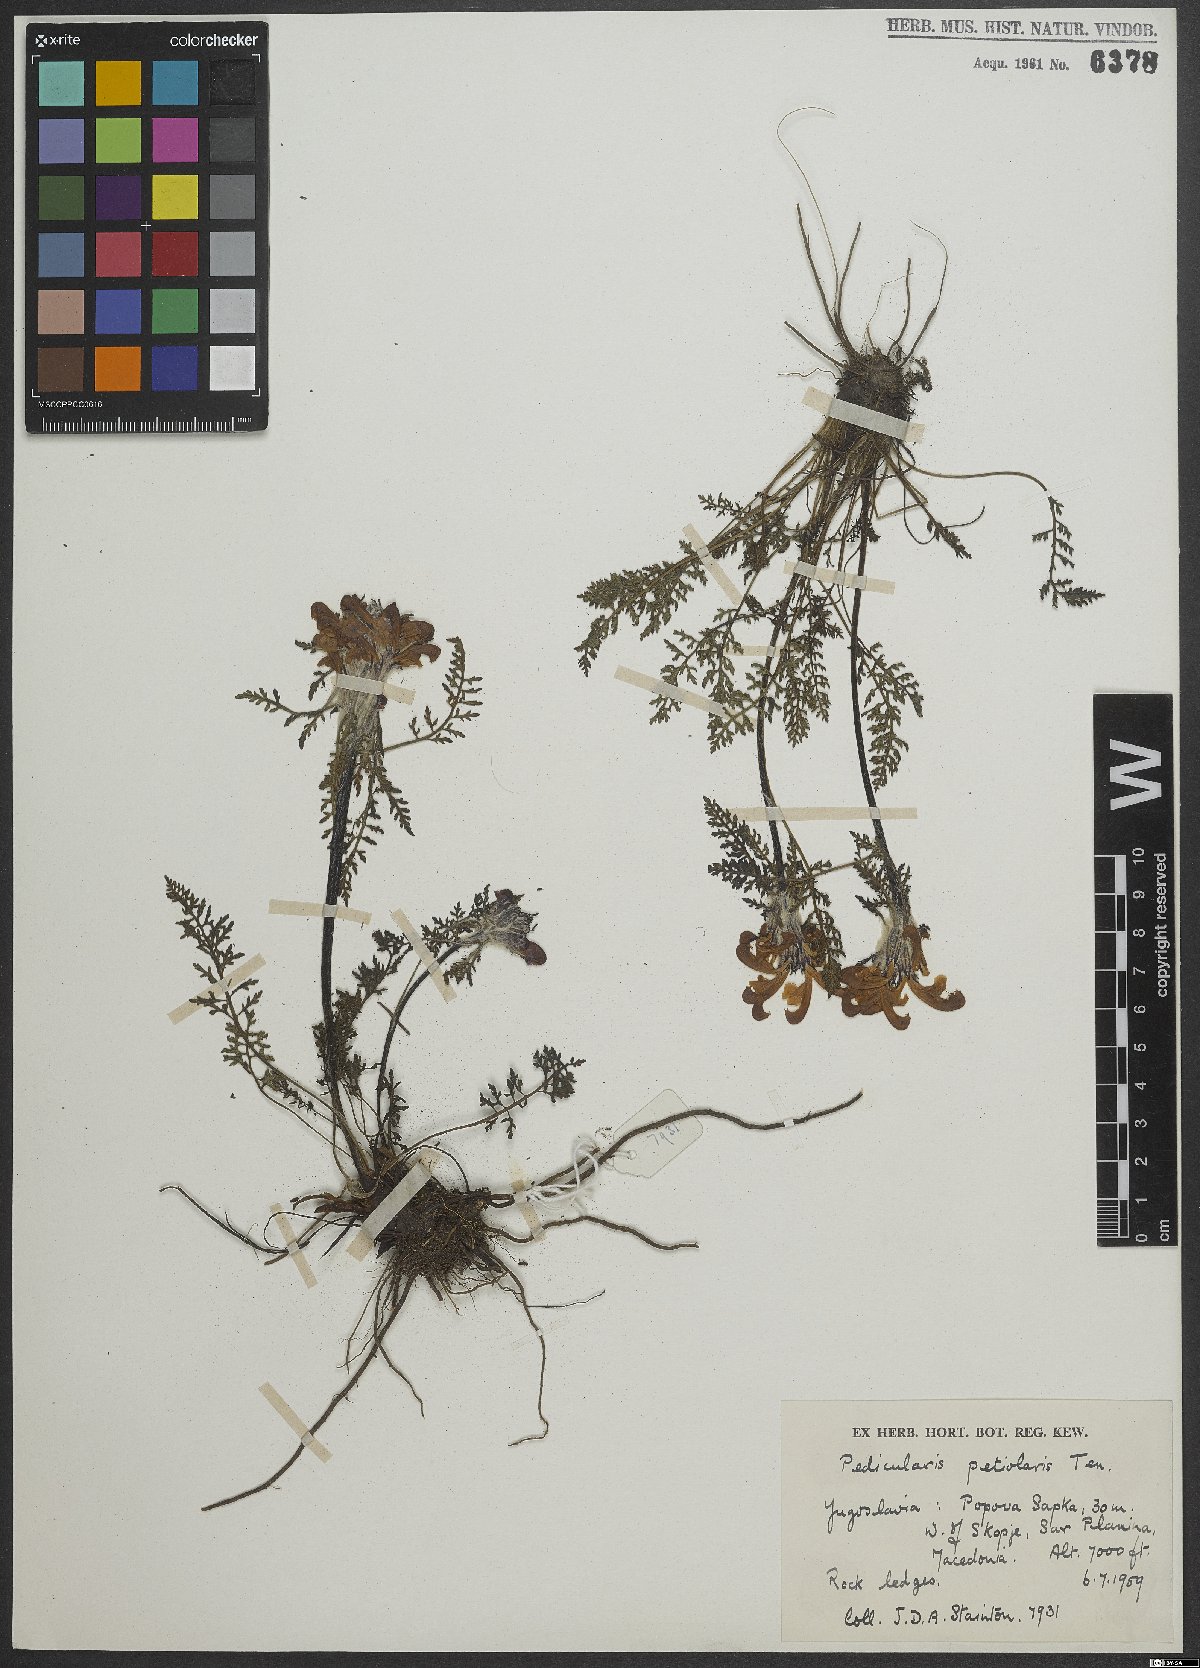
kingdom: Plantae
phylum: Tracheophyta
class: Magnoliopsida
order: Lamiales
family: Orobanchaceae
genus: Pedicularis
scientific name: Pedicularis petiolaris
